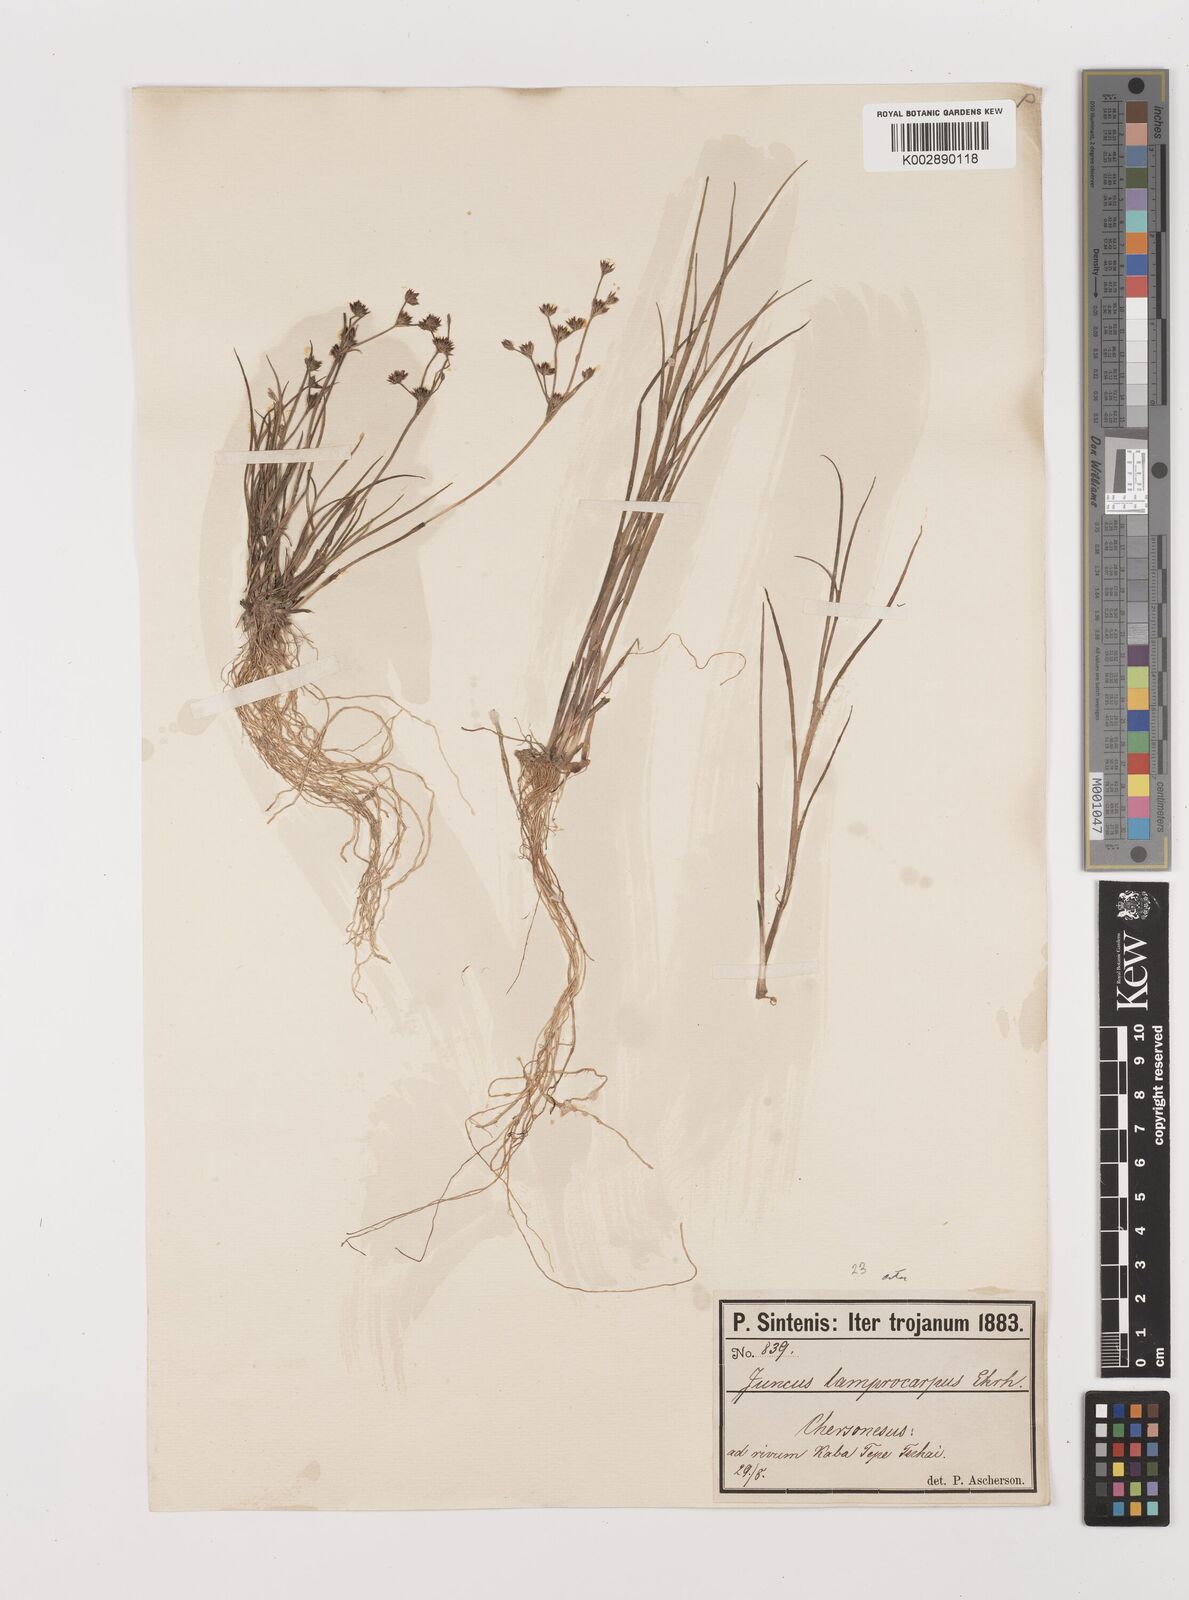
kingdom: Plantae
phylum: Tracheophyta
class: Liliopsida
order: Poales
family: Juncaceae
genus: Juncus
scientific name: Juncus articulatus
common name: Jointed rush
